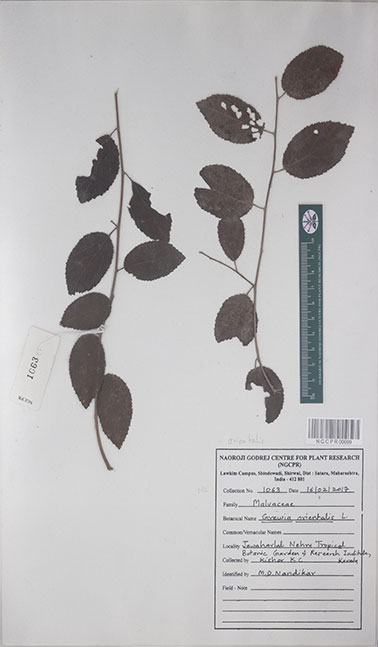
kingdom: Plantae
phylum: Tracheophyta
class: Magnoliopsida
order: Malvales
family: Malvaceae
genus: Grewia
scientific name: Grewia orientalis
